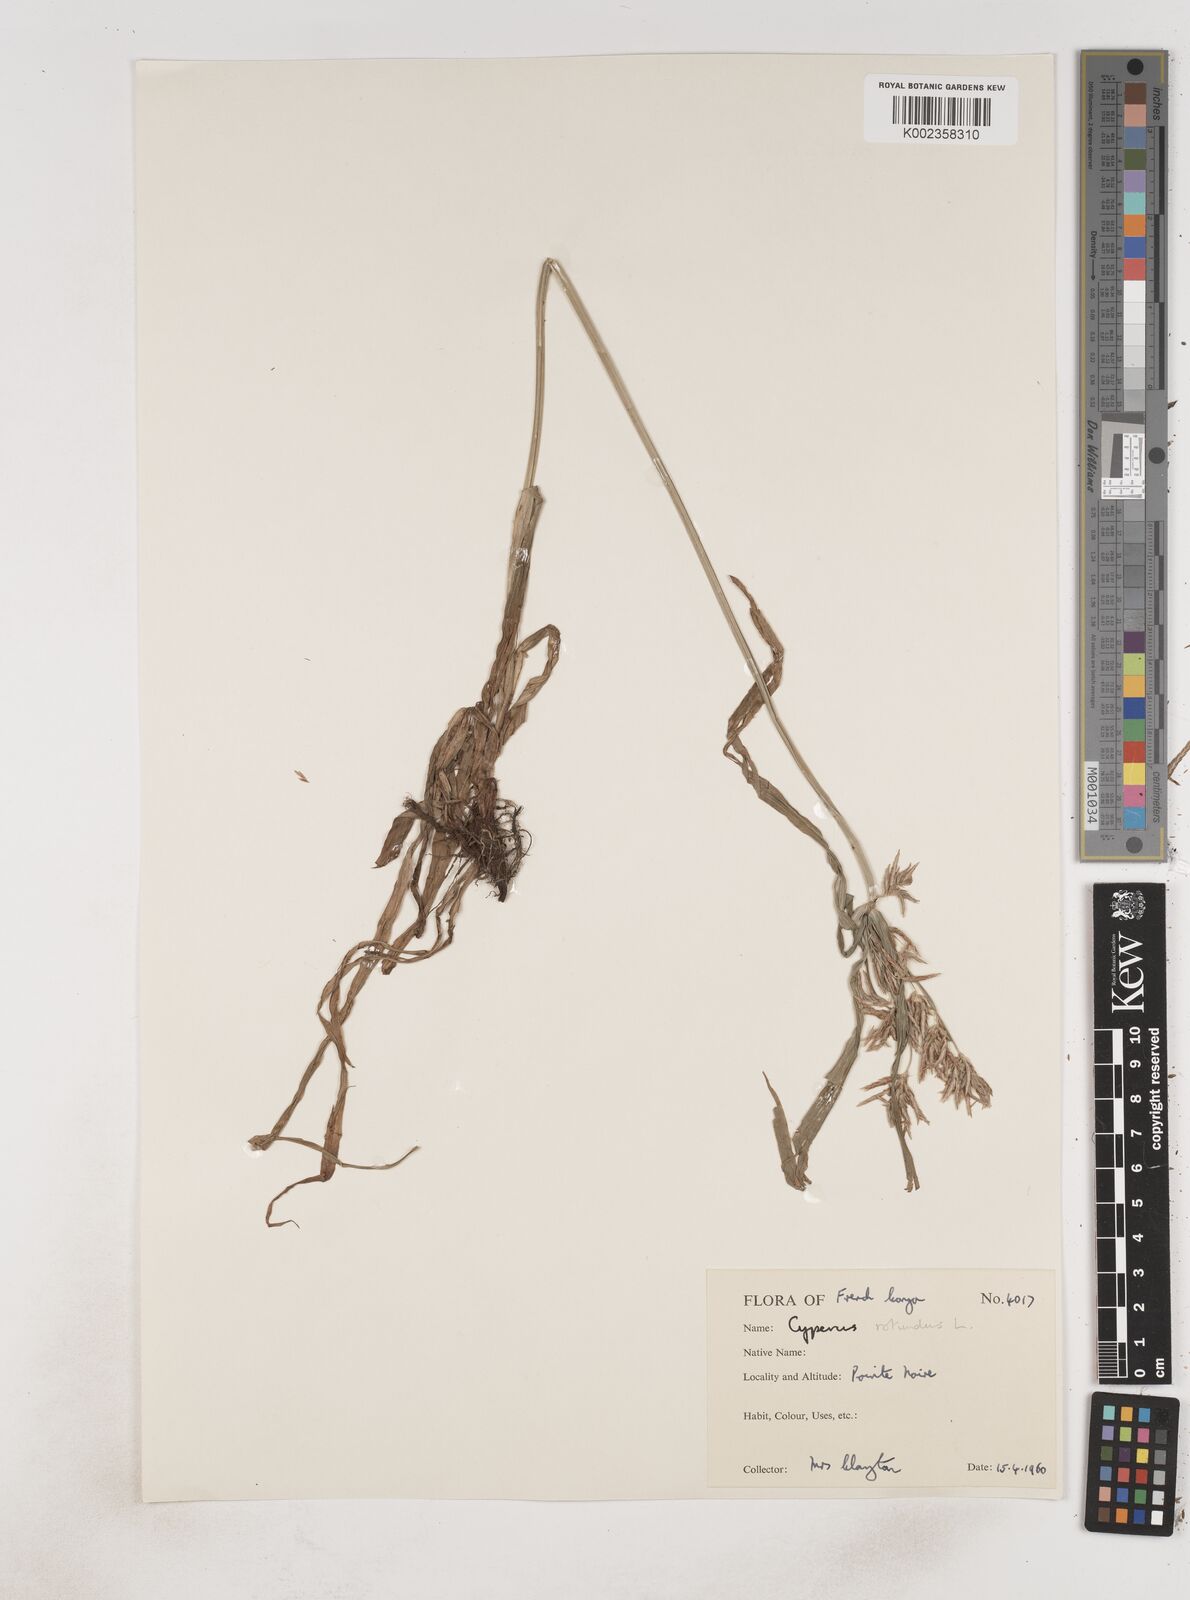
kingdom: Plantae
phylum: Tracheophyta
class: Liliopsida
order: Poales
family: Cyperaceae
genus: Cyperus
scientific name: Cyperus rotundus
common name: Nutgrass
